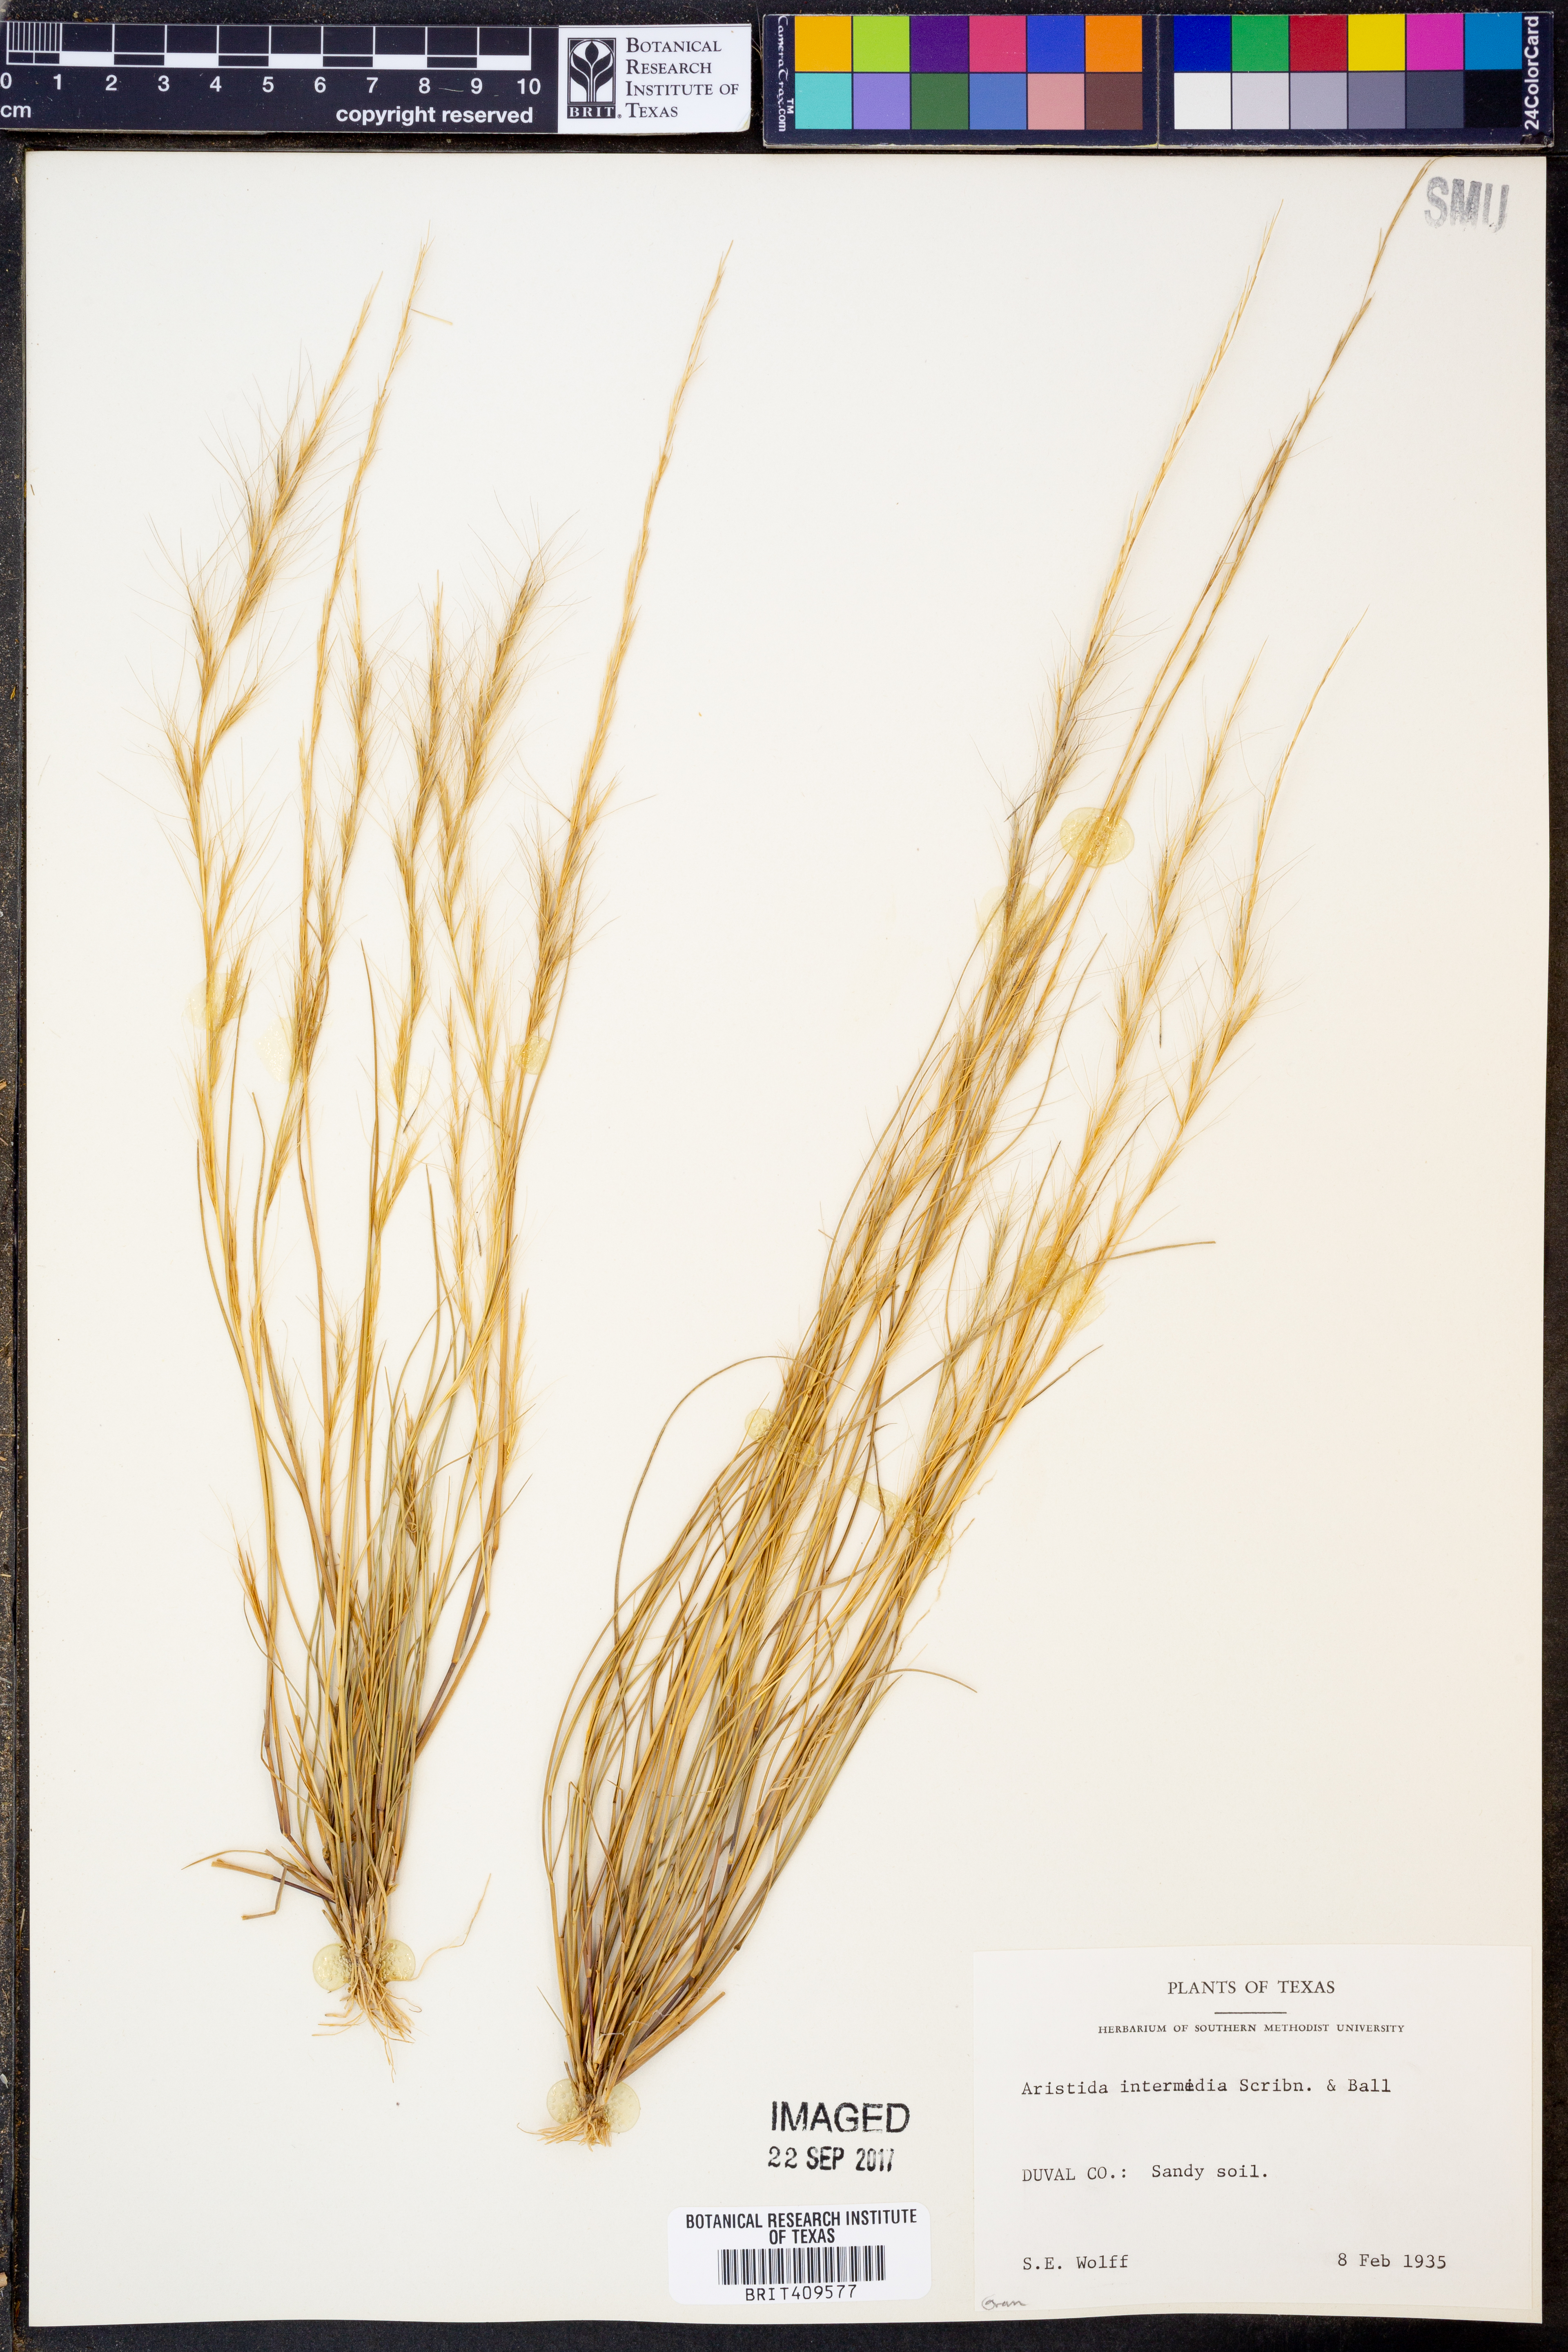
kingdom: Plantae
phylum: Tracheophyta
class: Liliopsida
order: Poales
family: Poaceae
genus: Aristida
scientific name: Aristida longespica
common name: Long-spiked triple-awned grass
